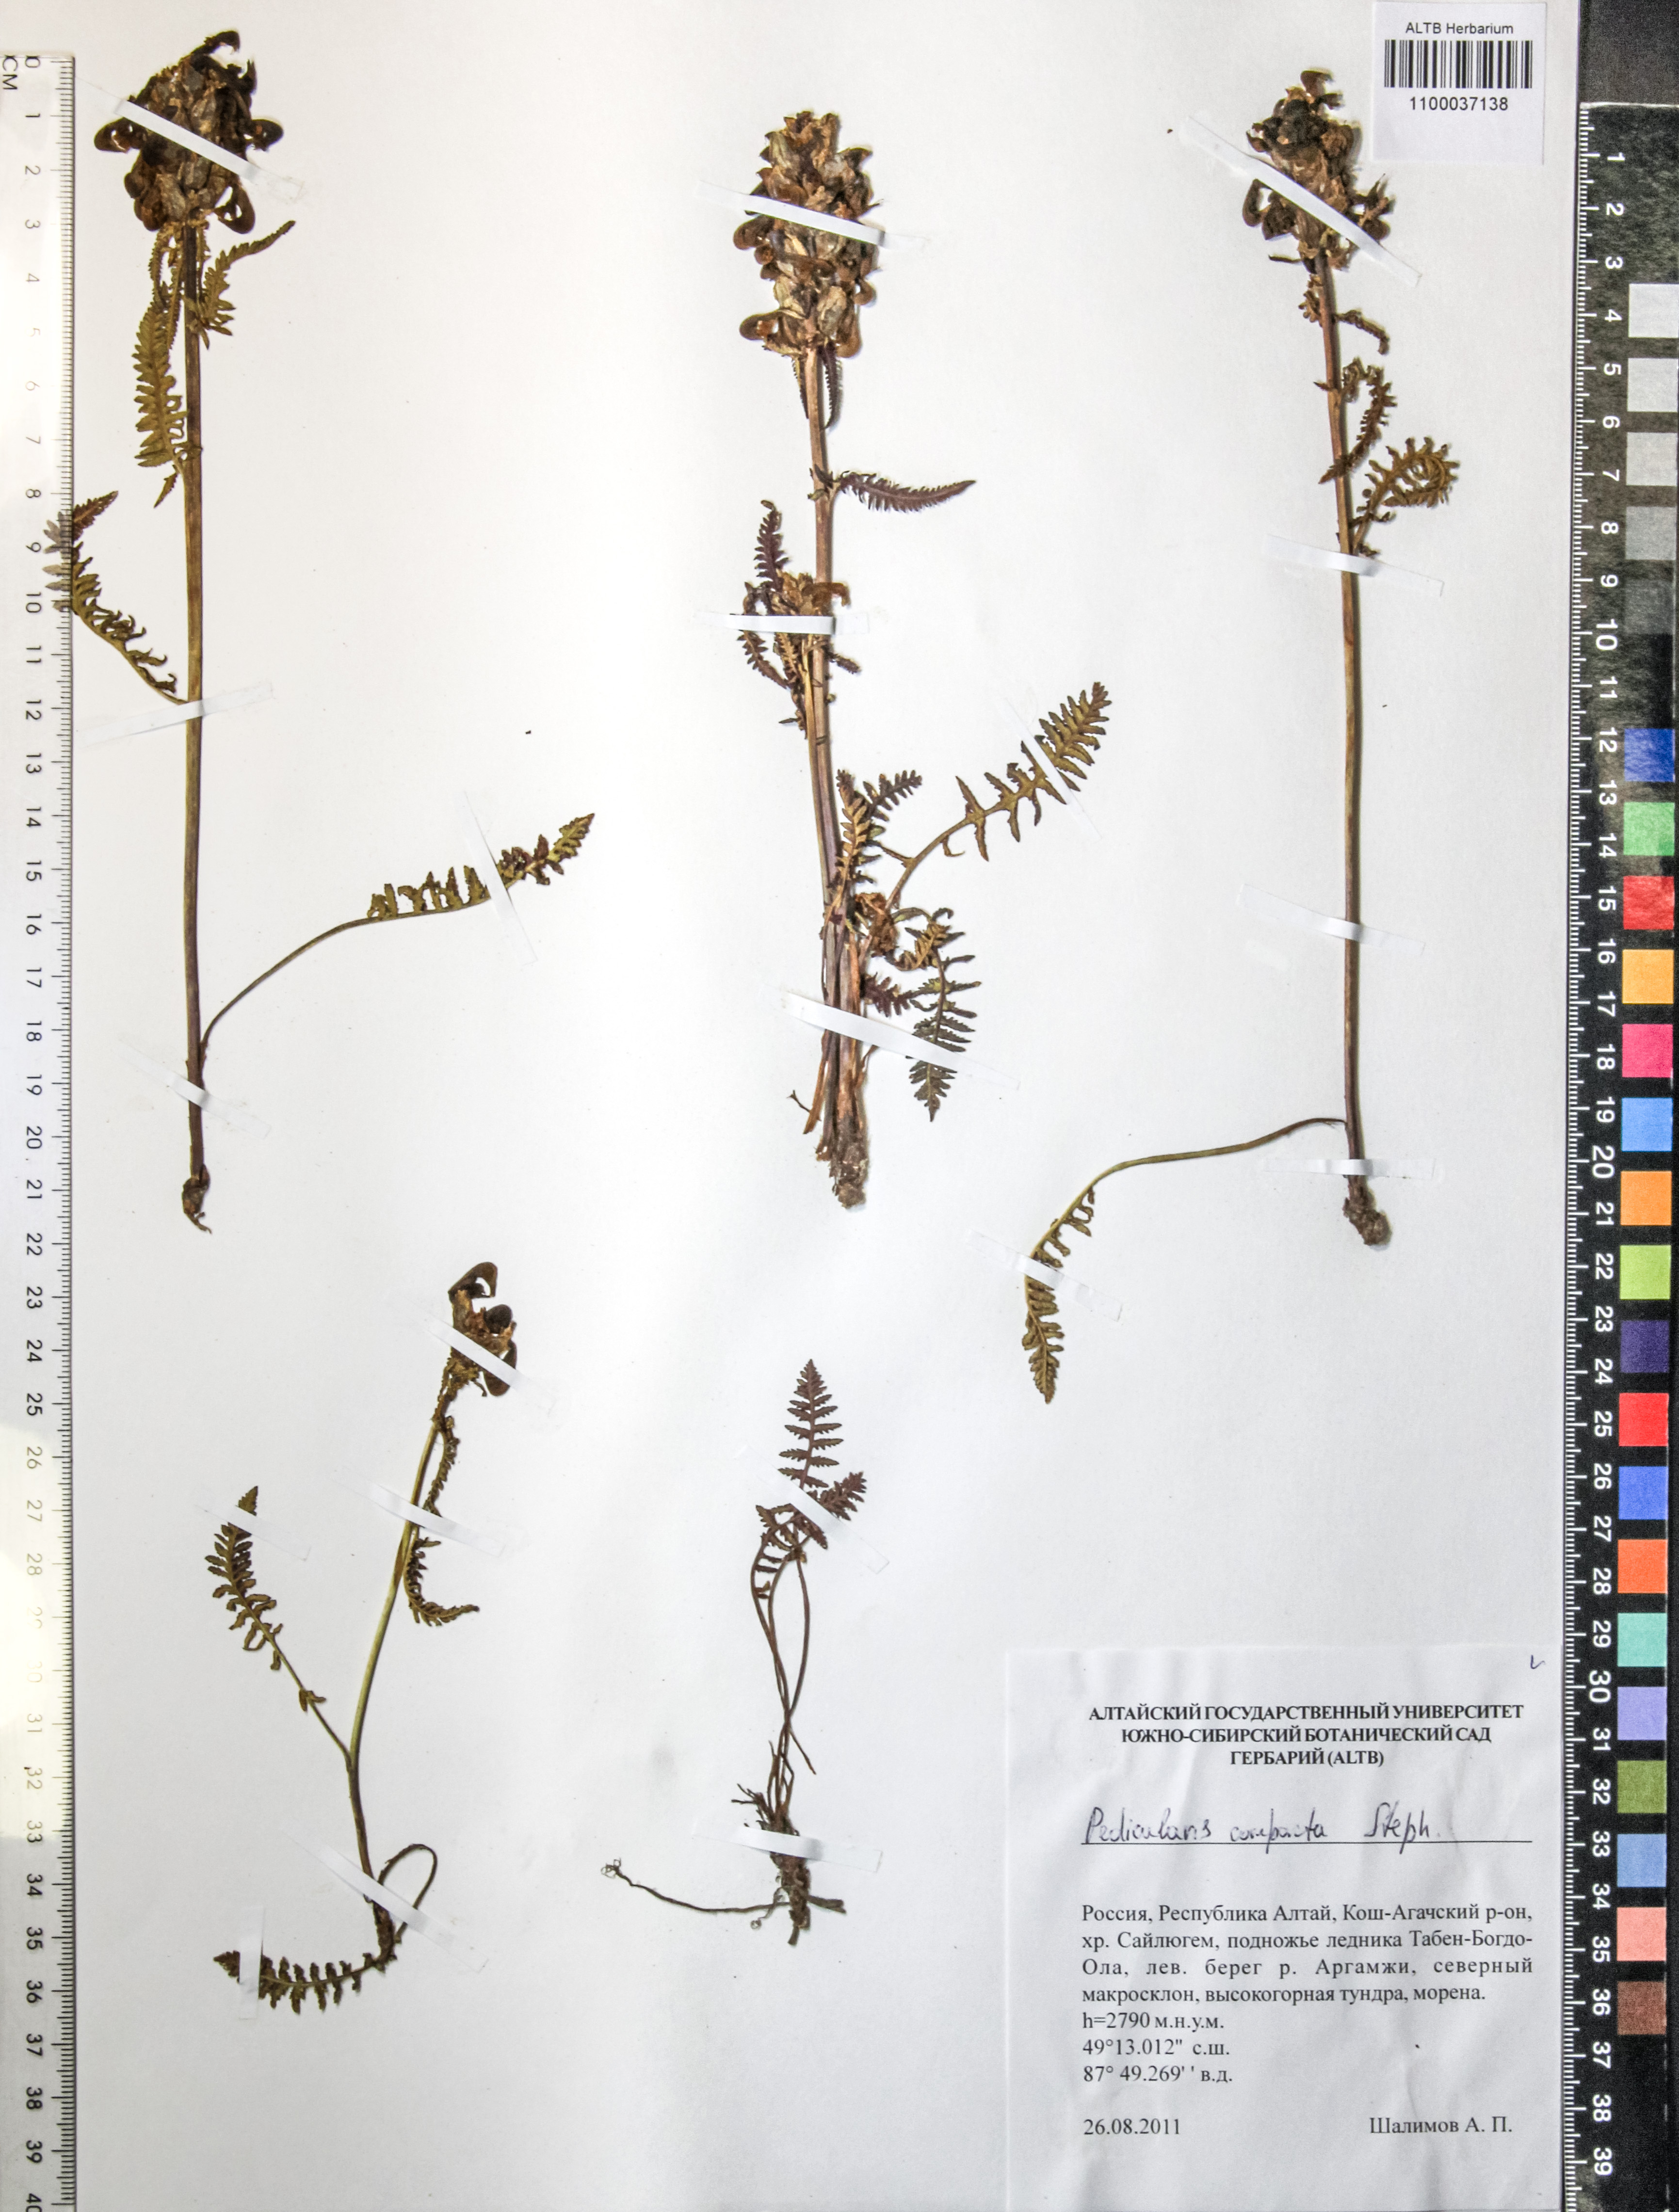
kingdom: Plantae
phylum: Tracheophyta
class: Magnoliopsida
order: Lamiales
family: Orobanchaceae
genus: Pedicularis
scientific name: Pedicularis compacta
